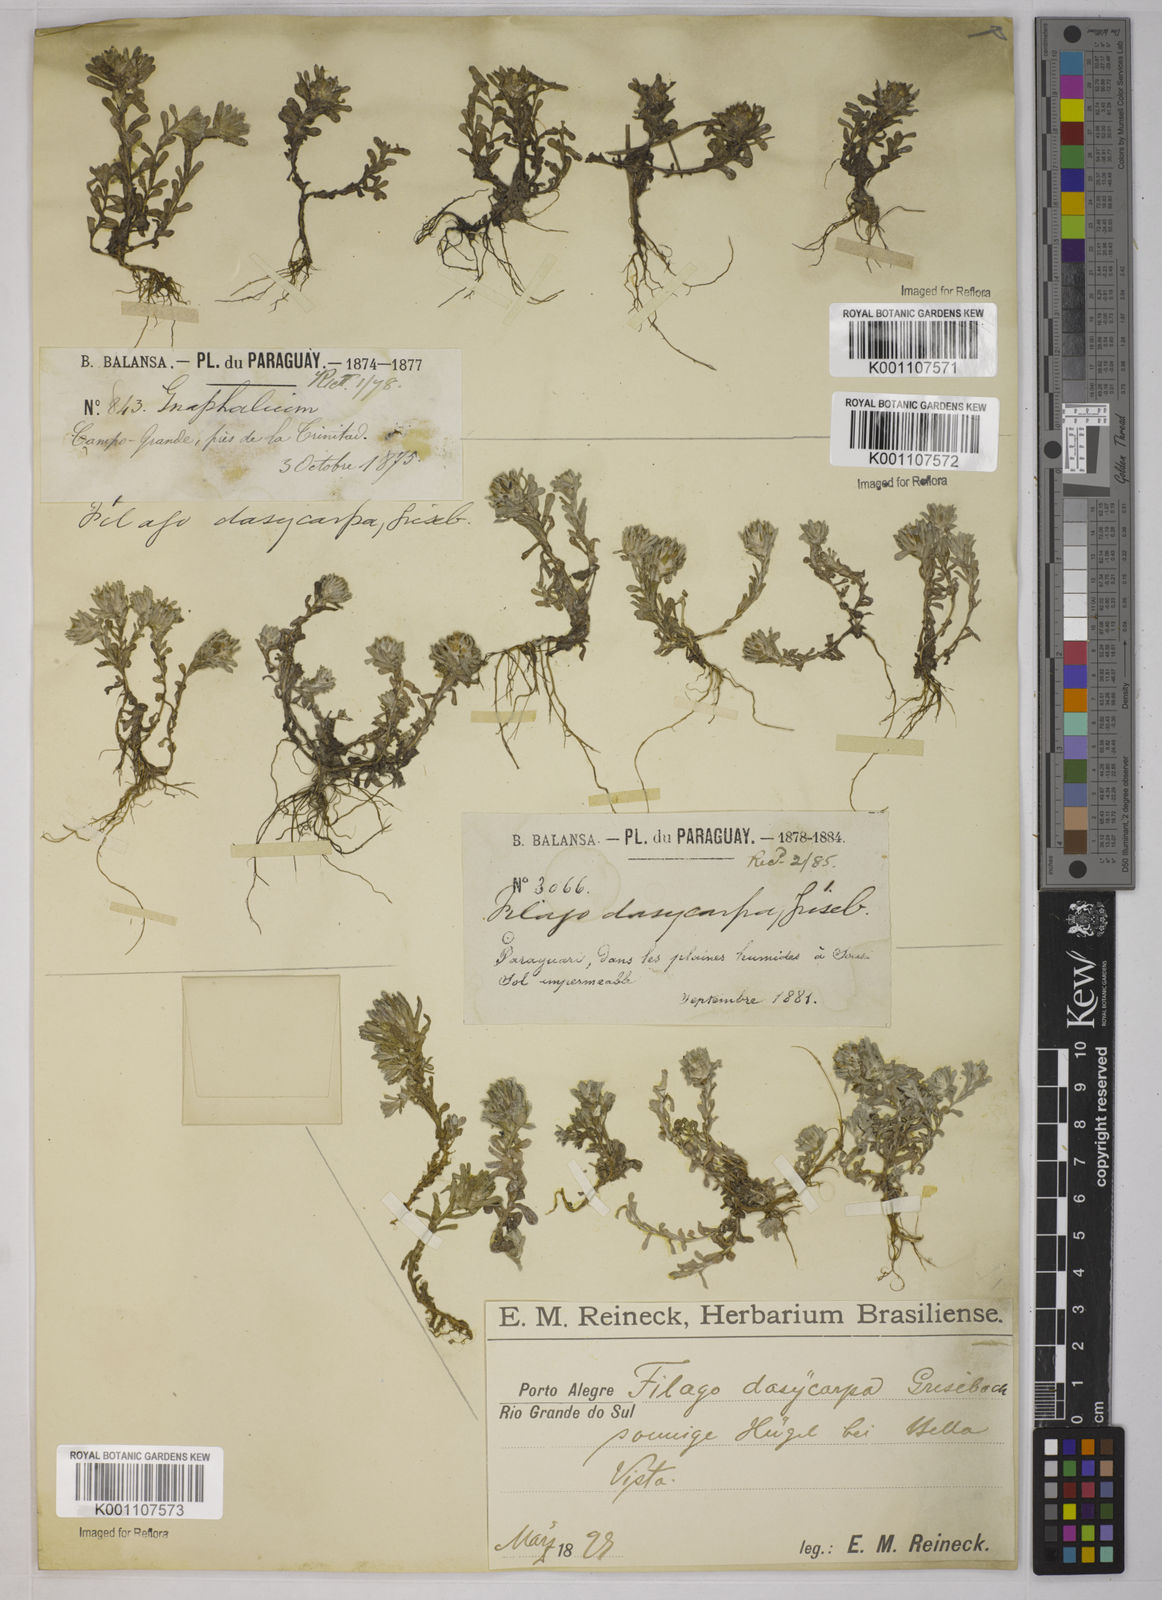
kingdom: Plantae
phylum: Tracheophyta
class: Magnoliopsida
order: Asterales
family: Asteraceae
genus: Micropsis
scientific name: Micropsis dasycarpa
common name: Bighead straitjackets
